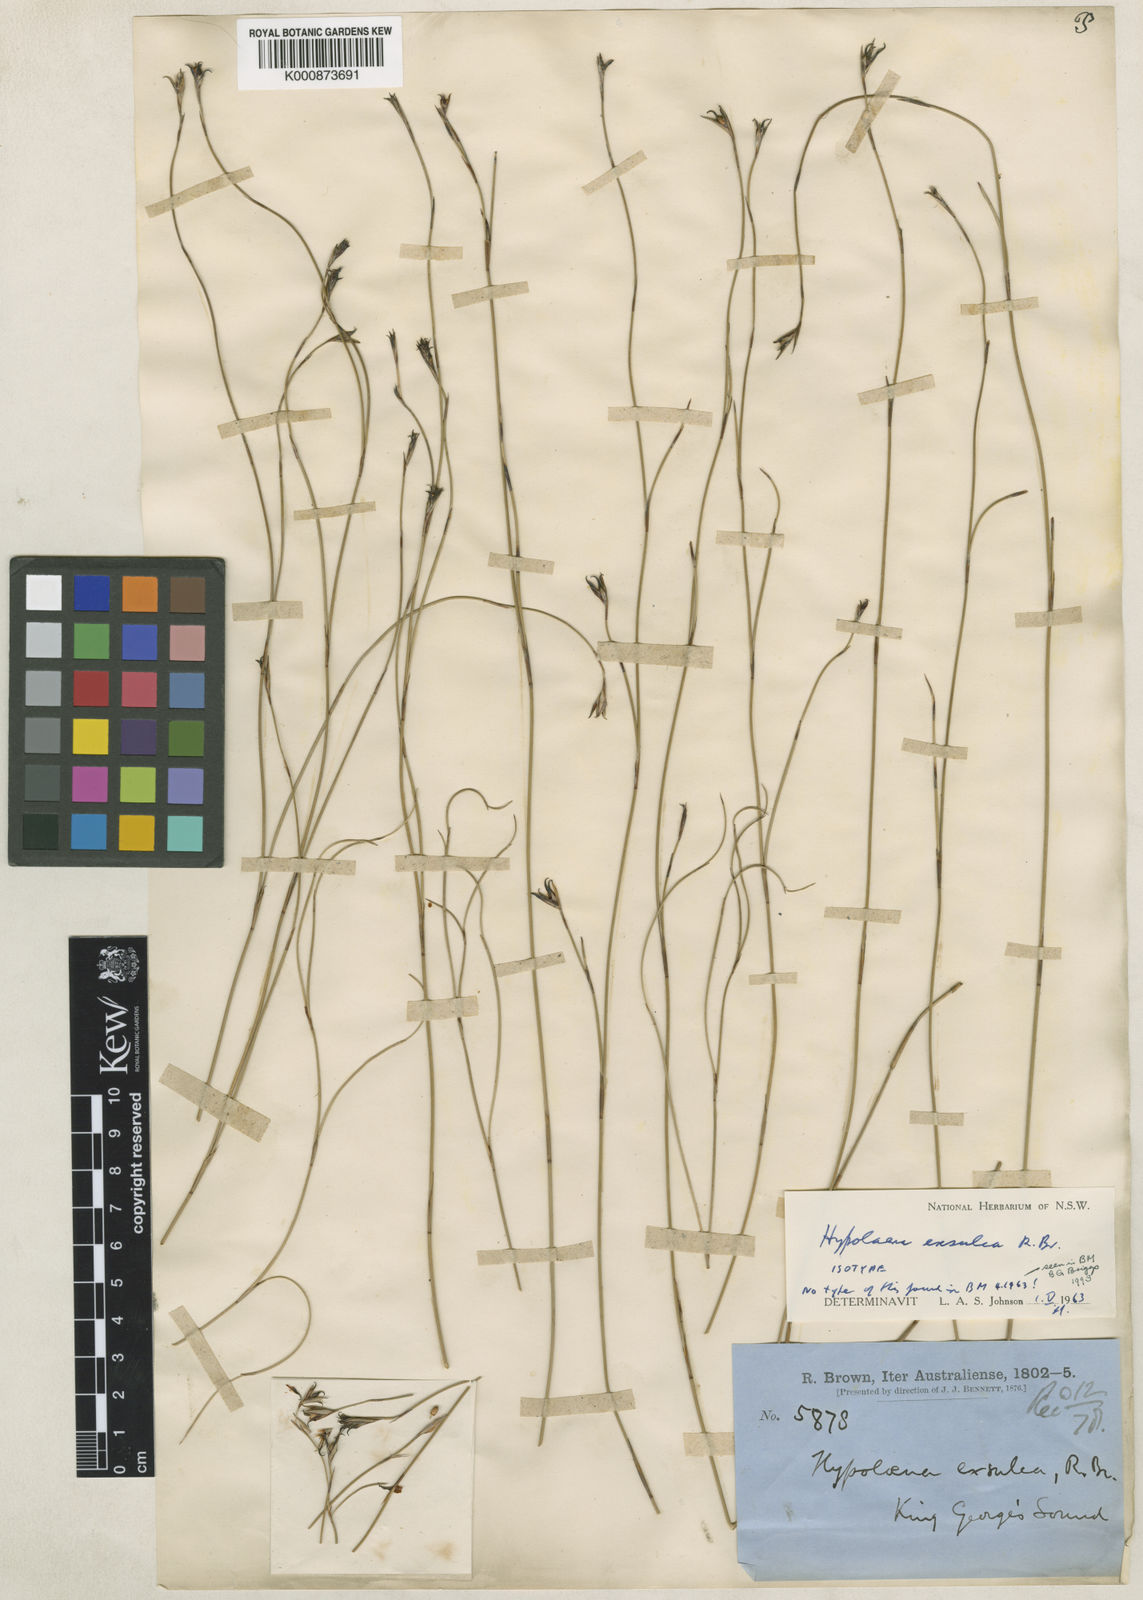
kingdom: Plantae
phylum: Tracheophyta
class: Liliopsida
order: Poales
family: Restionaceae
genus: Hypolaena
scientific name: Hypolaena exsulca
